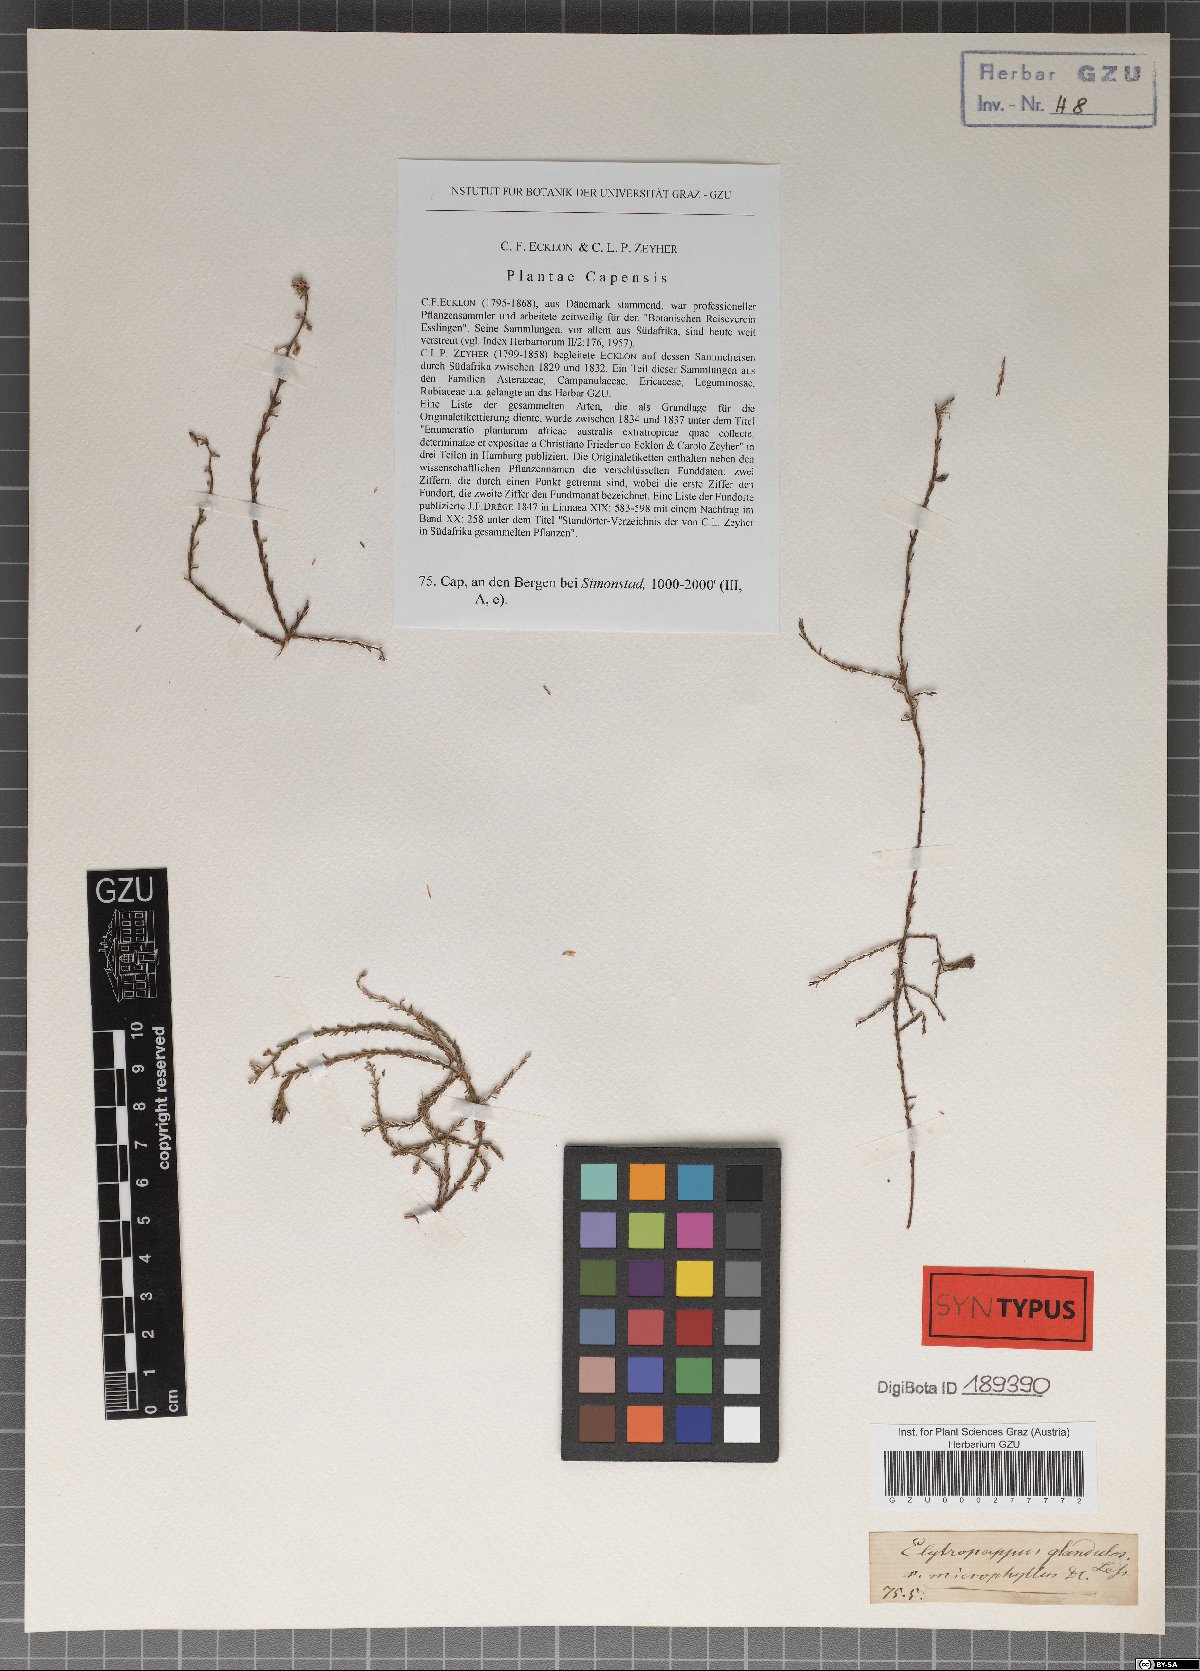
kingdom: Plantae
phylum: Tracheophyta
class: Magnoliopsida
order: Asterales
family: Asteraceae
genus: Myrovernix
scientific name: Myrovernix scaber
